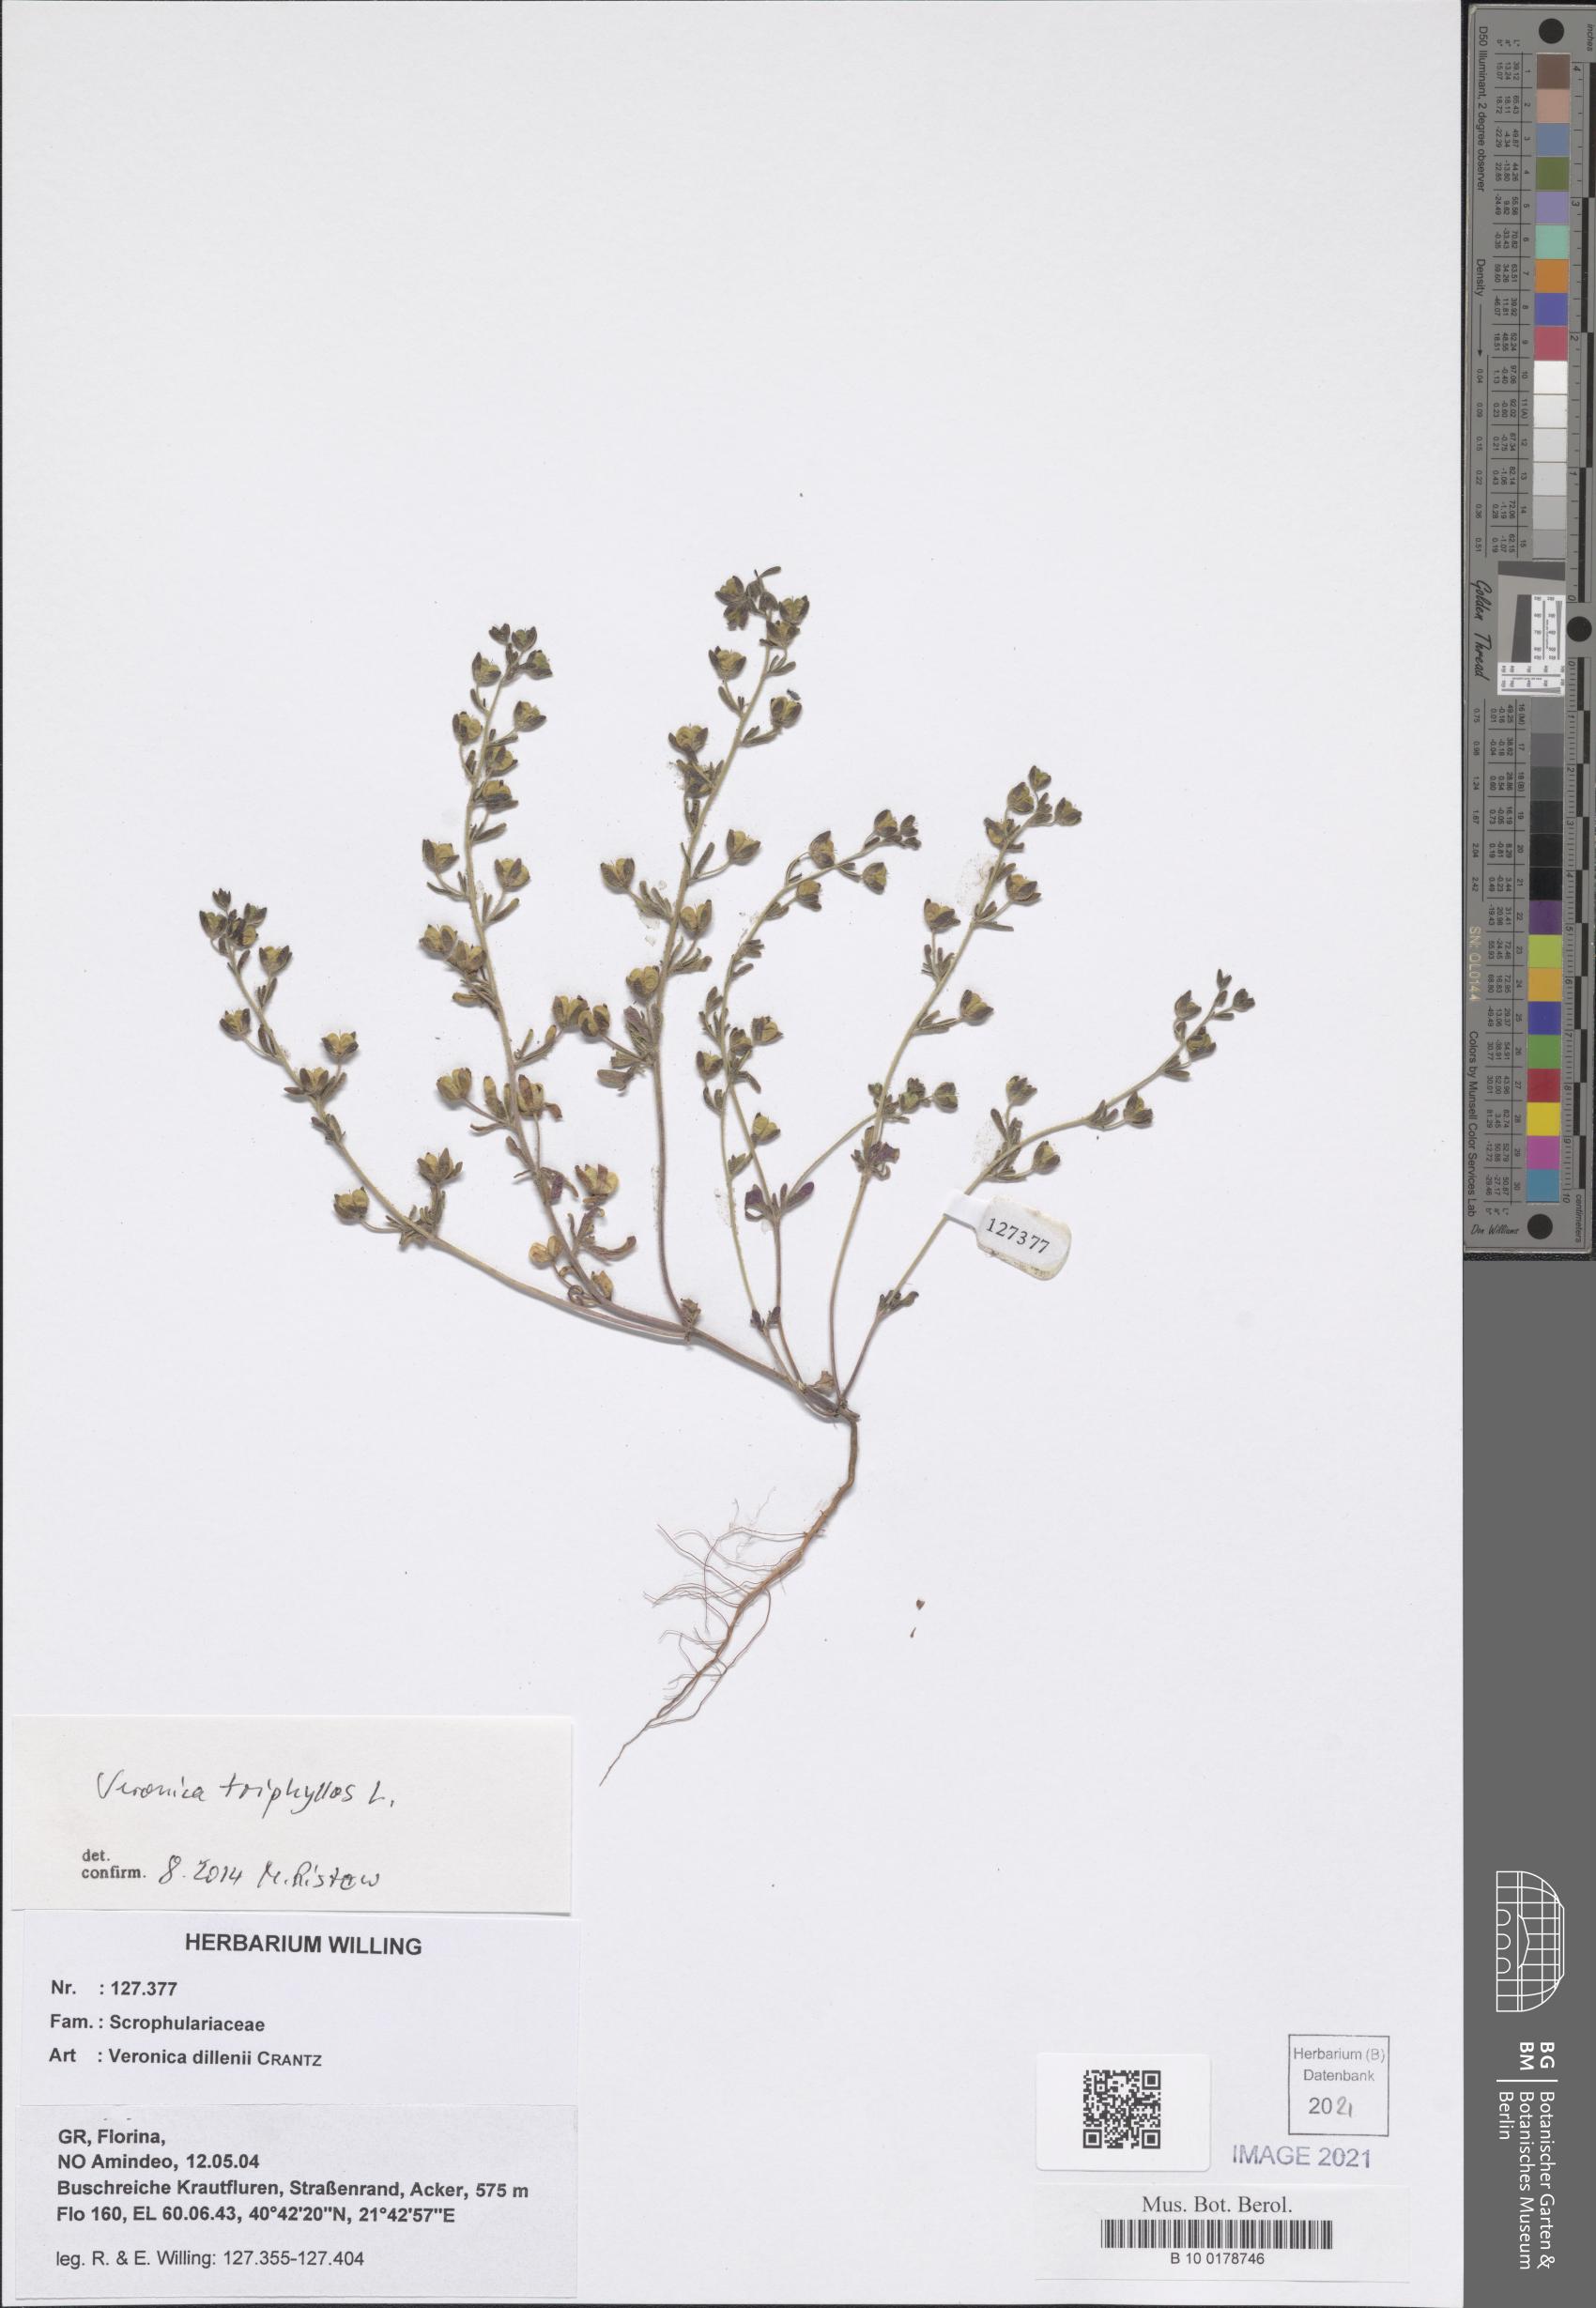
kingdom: Plantae
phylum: Tracheophyta
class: Magnoliopsida
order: Lamiales
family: Plantaginaceae
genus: Veronica
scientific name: Veronica triphyllos
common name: Fingered speedwell
